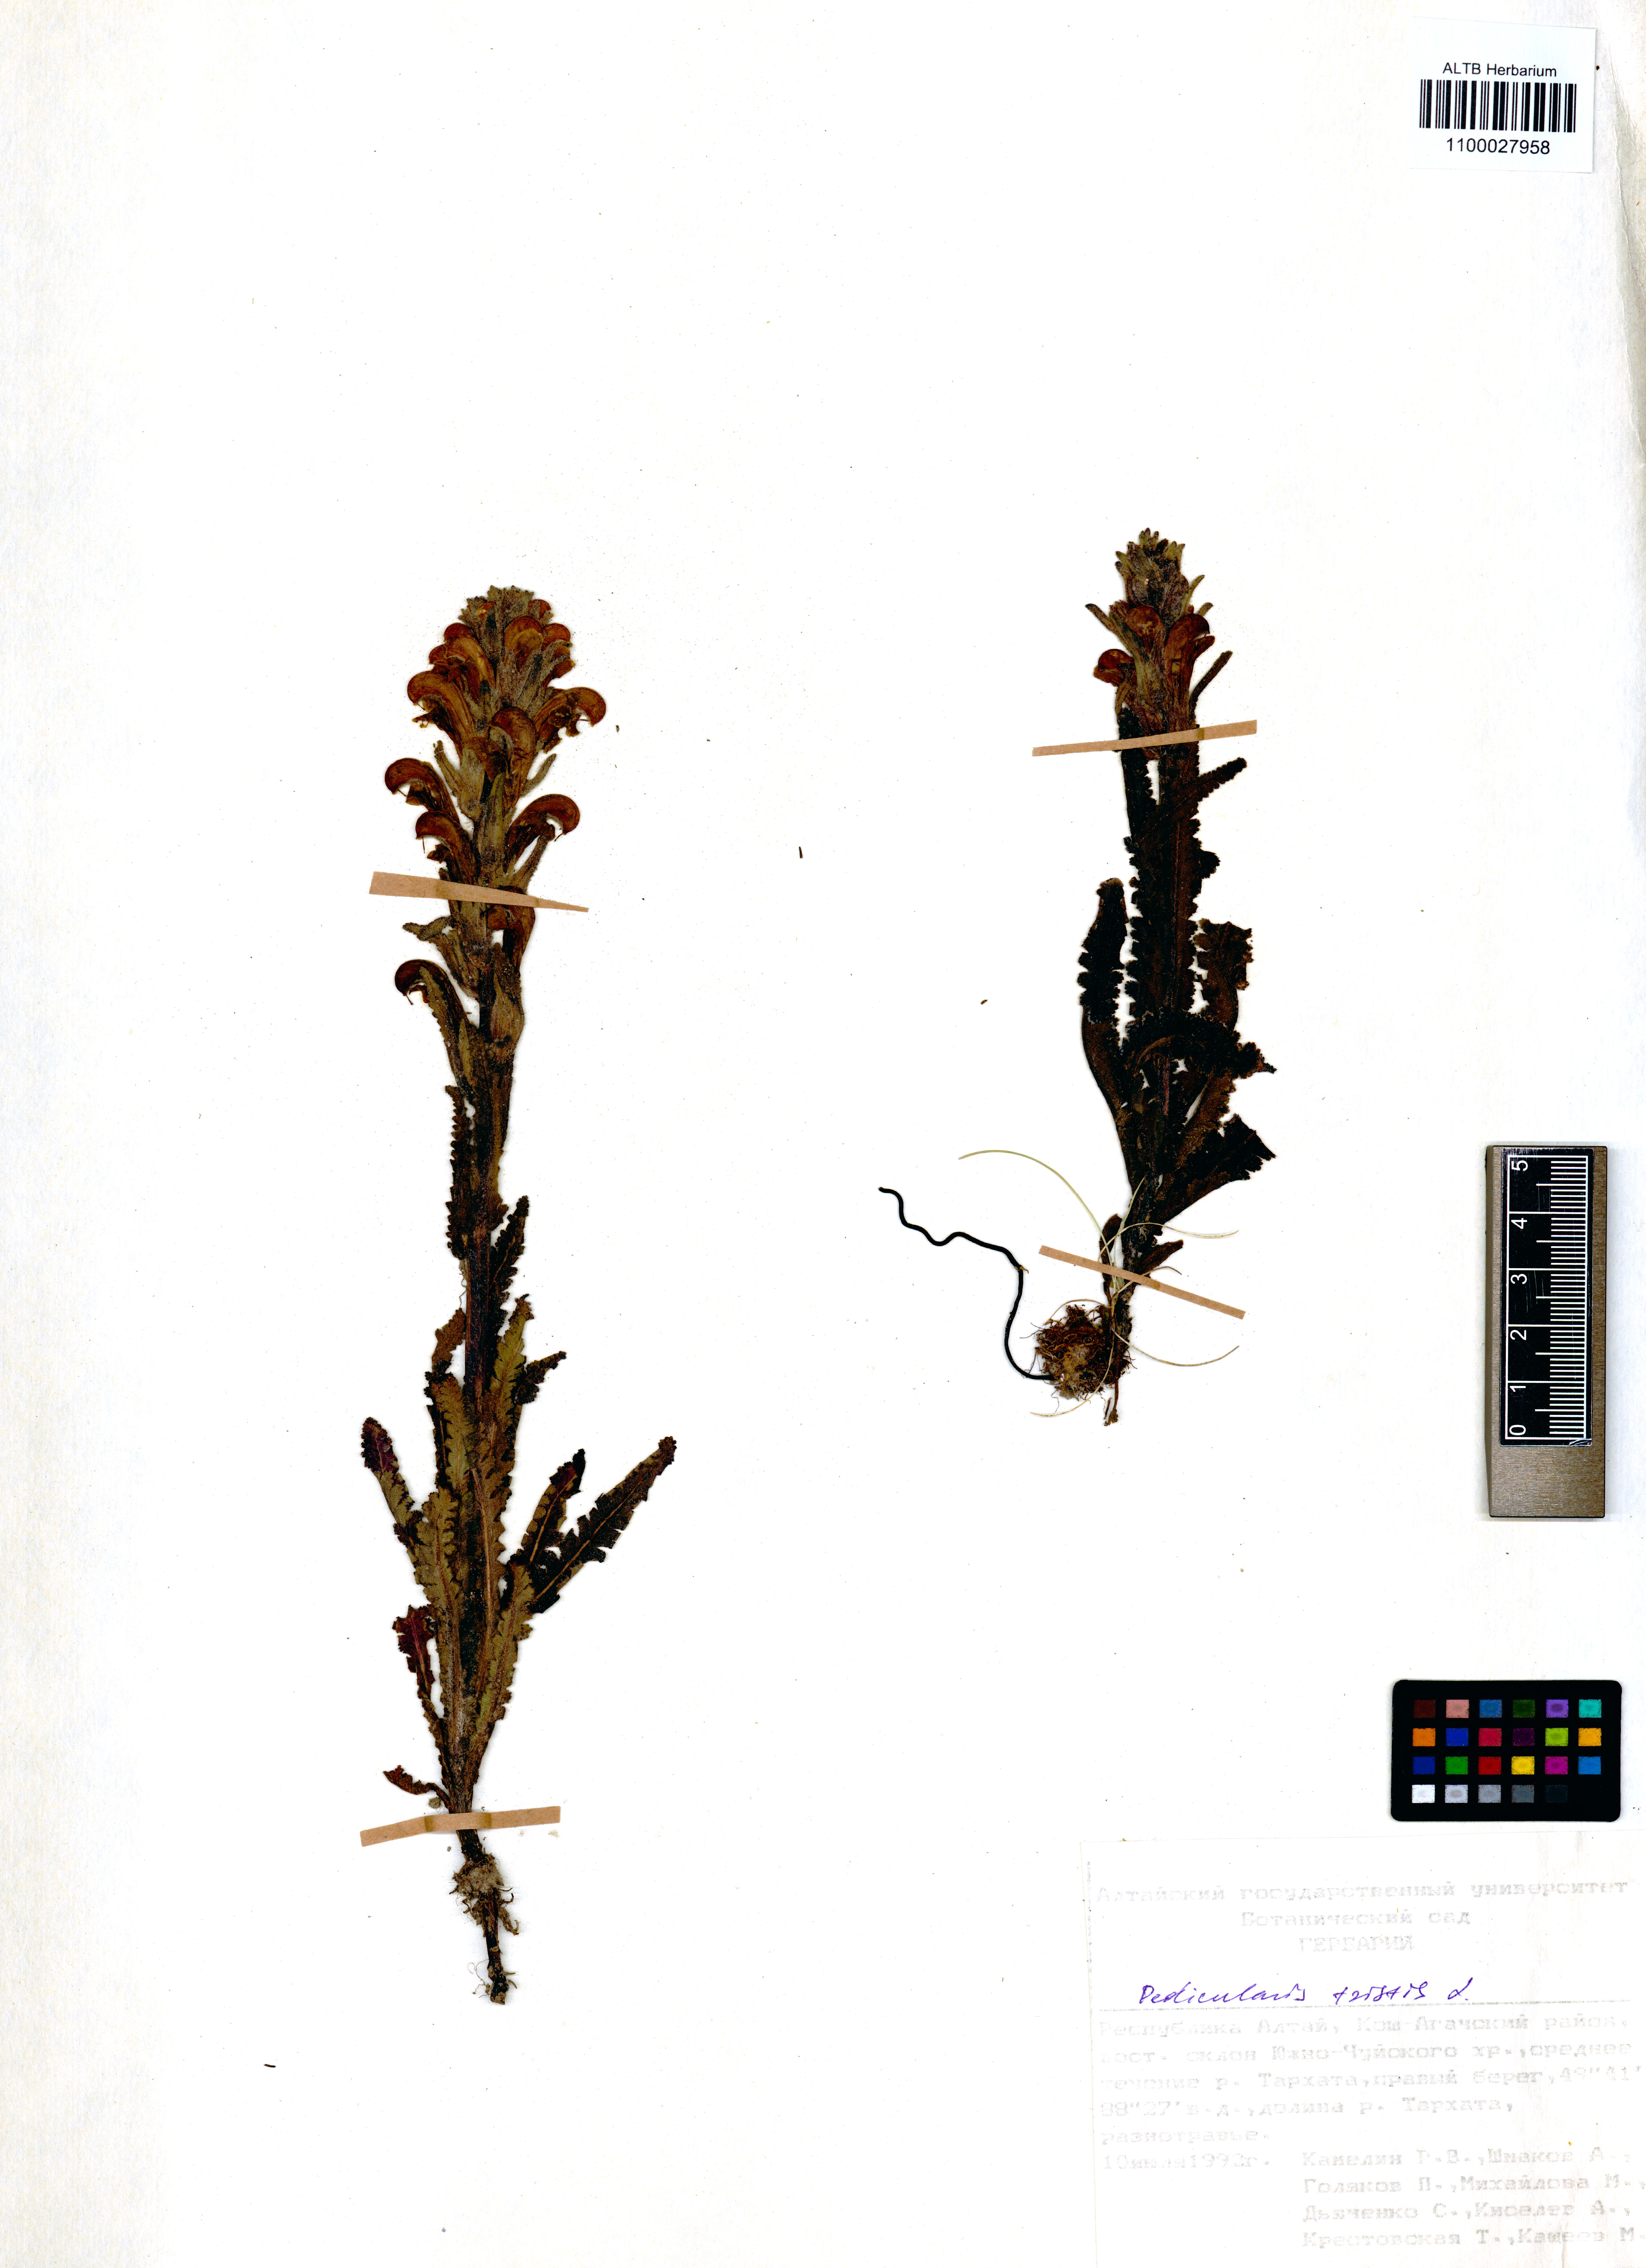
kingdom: Plantae
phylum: Tracheophyta
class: Magnoliopsida
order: Lamiales
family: Orobanchaceae
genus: Pedicularis
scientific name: Pedicularis tristis
